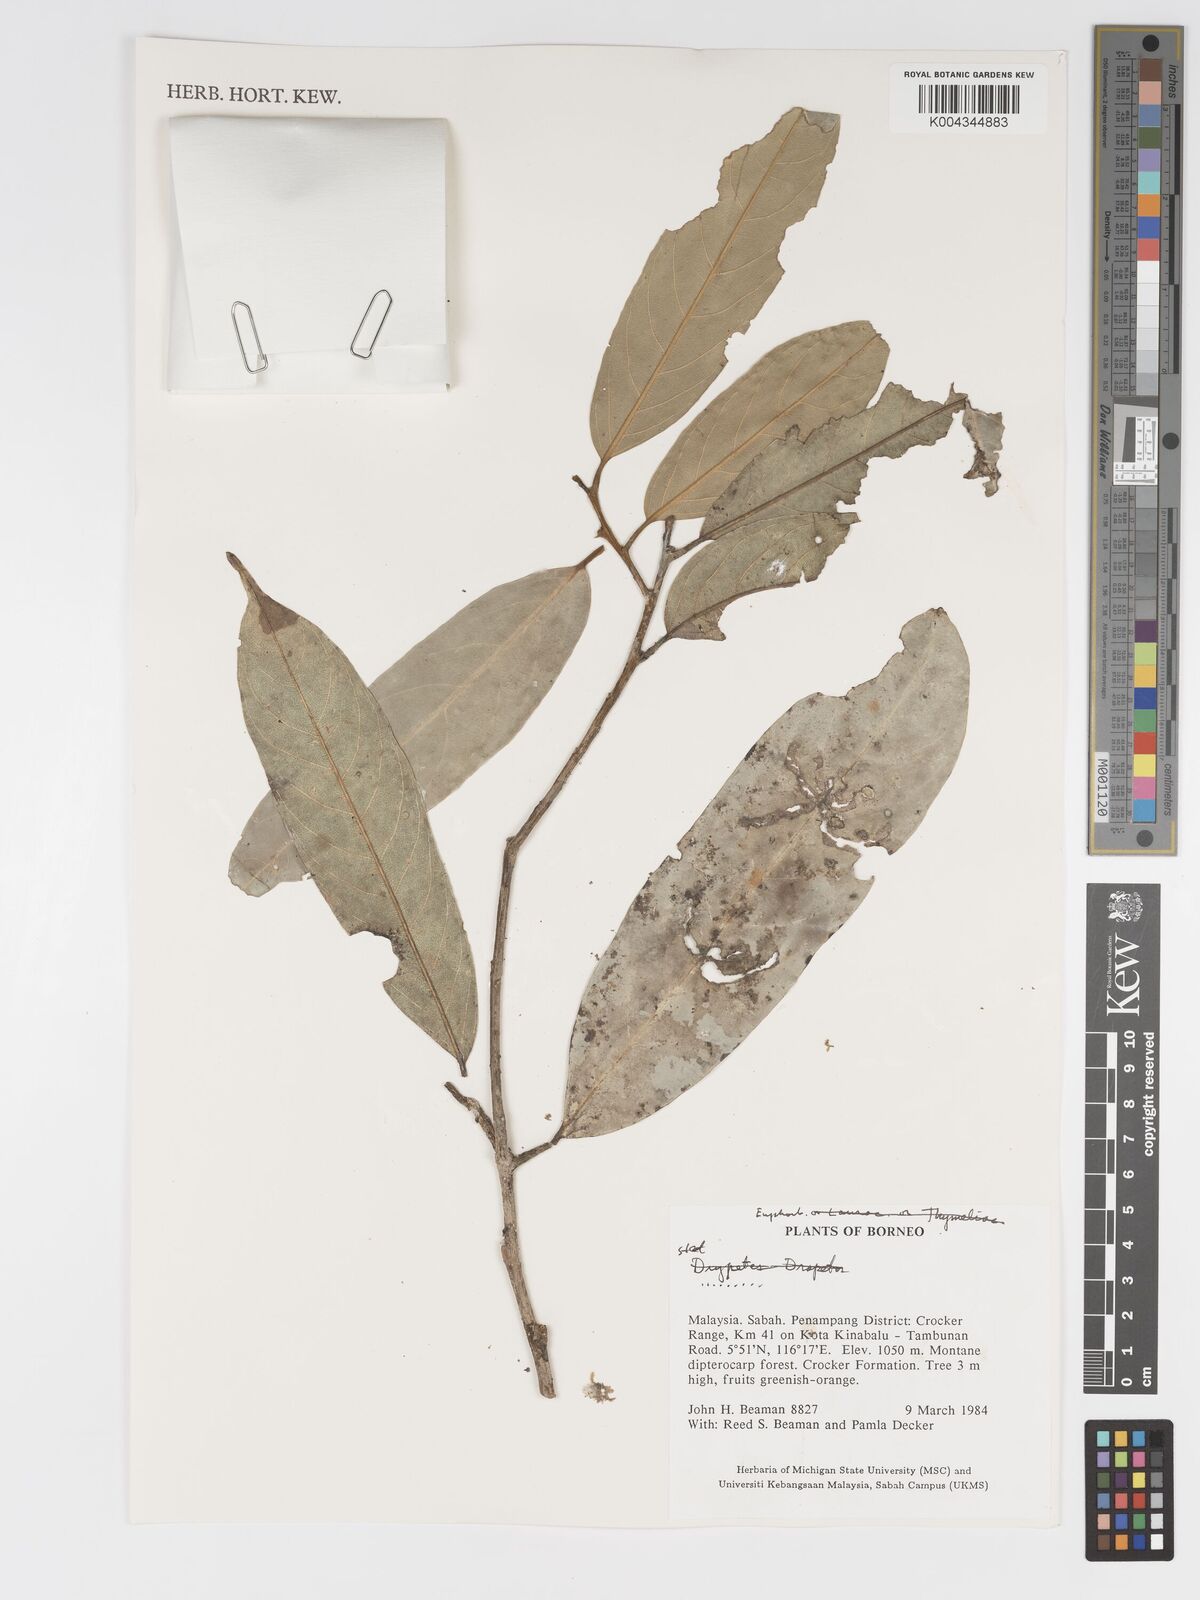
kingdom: Plantae
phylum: Tracheophyta
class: Magnoliopsida
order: Malpighiales
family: Putranjivaceae
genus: Drypetes
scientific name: Drypetes
